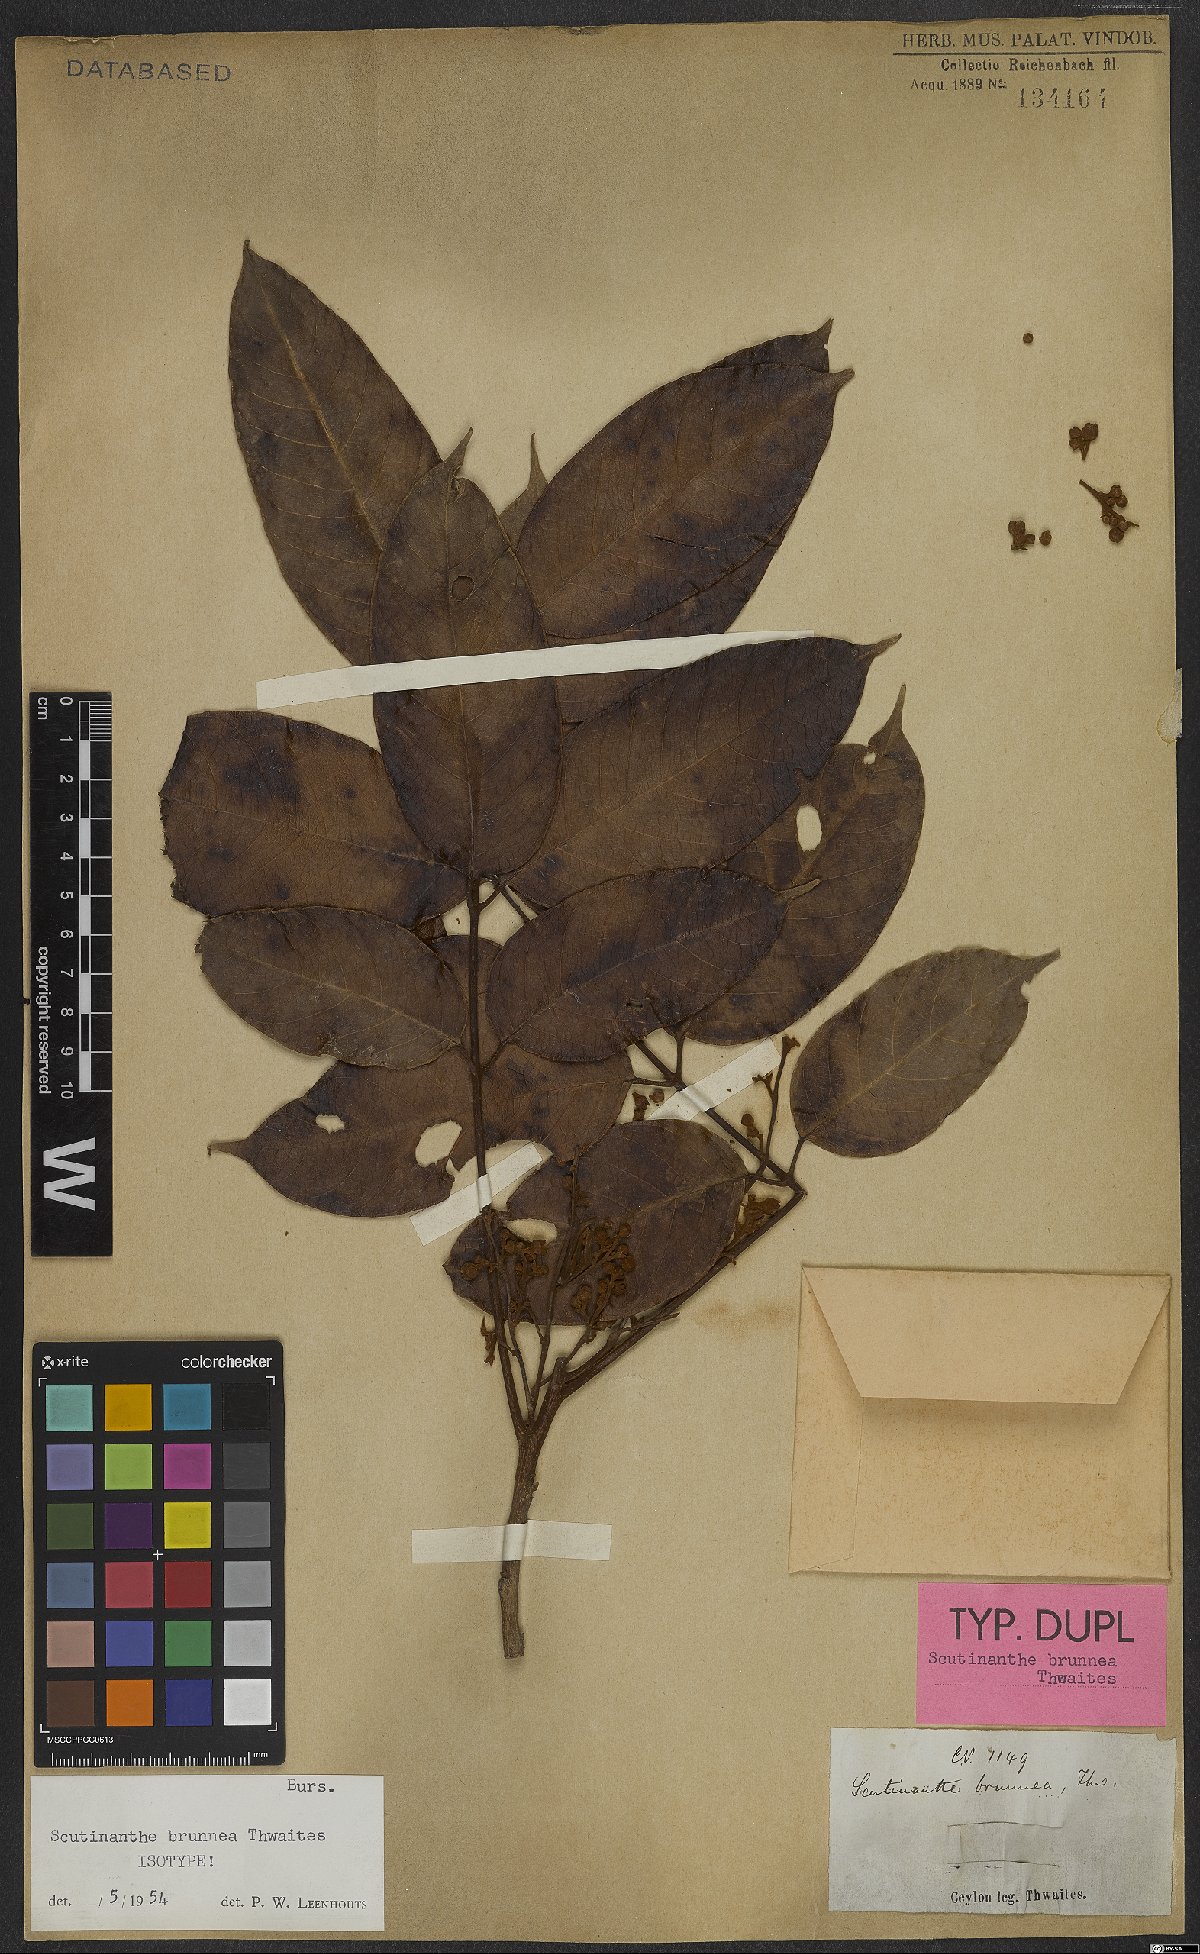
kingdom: Plantae
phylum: Tracheophyta
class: Magnoliopsida
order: Sapindales
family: Burseraceae
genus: Scutinanthe
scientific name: Scutinanthe brunnea
